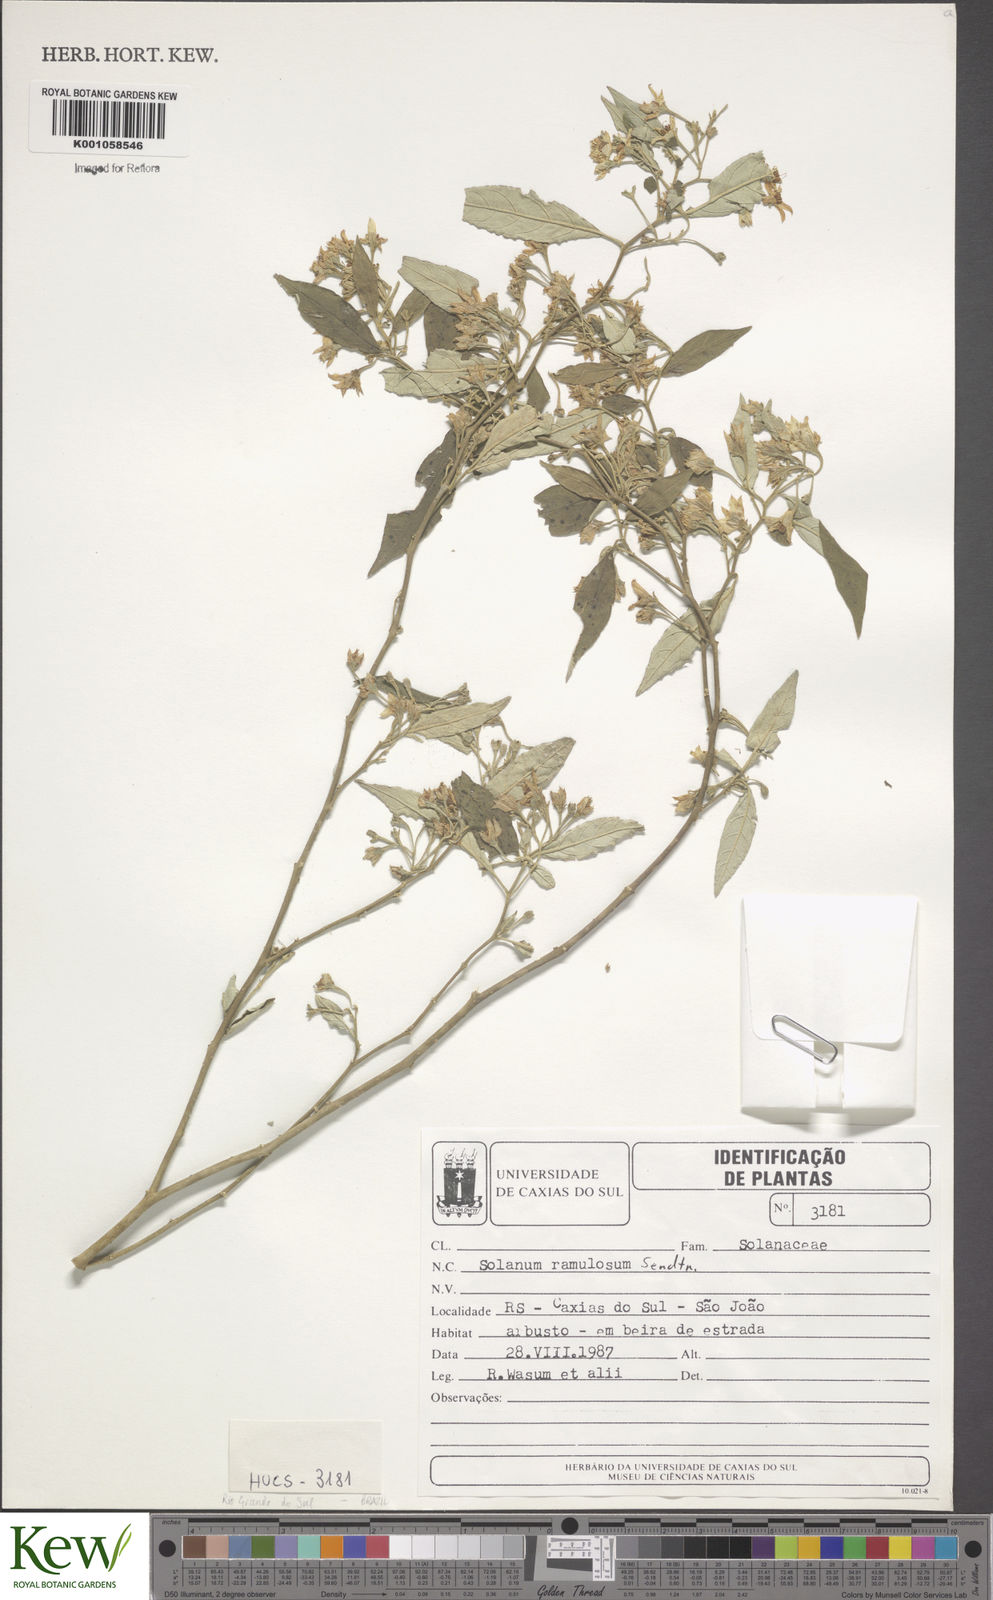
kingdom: Plantae
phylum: Tracheophyta
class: Magnoliopsida
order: Solanales
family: Solanaceae
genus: Solanum
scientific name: Solanum ramulosum
